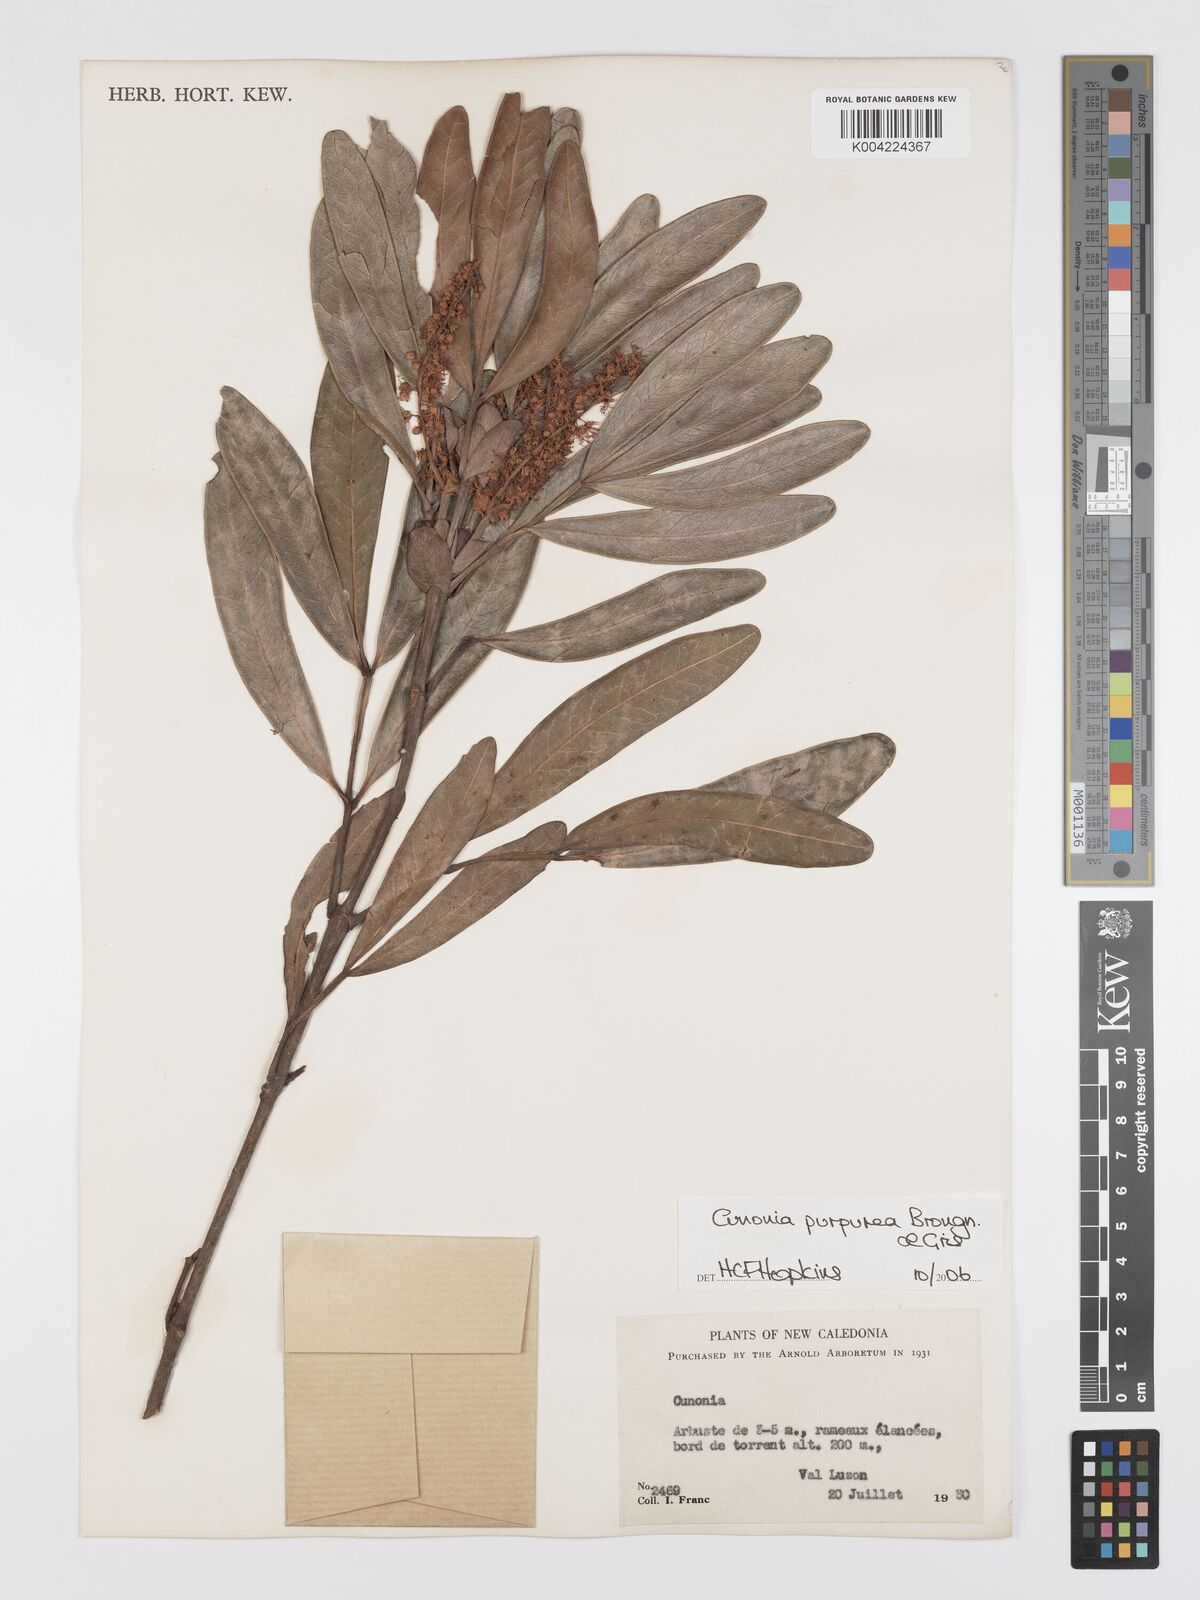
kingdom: Plantae
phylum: Tracheophyta
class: Magnoliopsida
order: Oxalidales
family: Cunoniaceae
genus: Cunonia
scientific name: Cunonia purpurea
